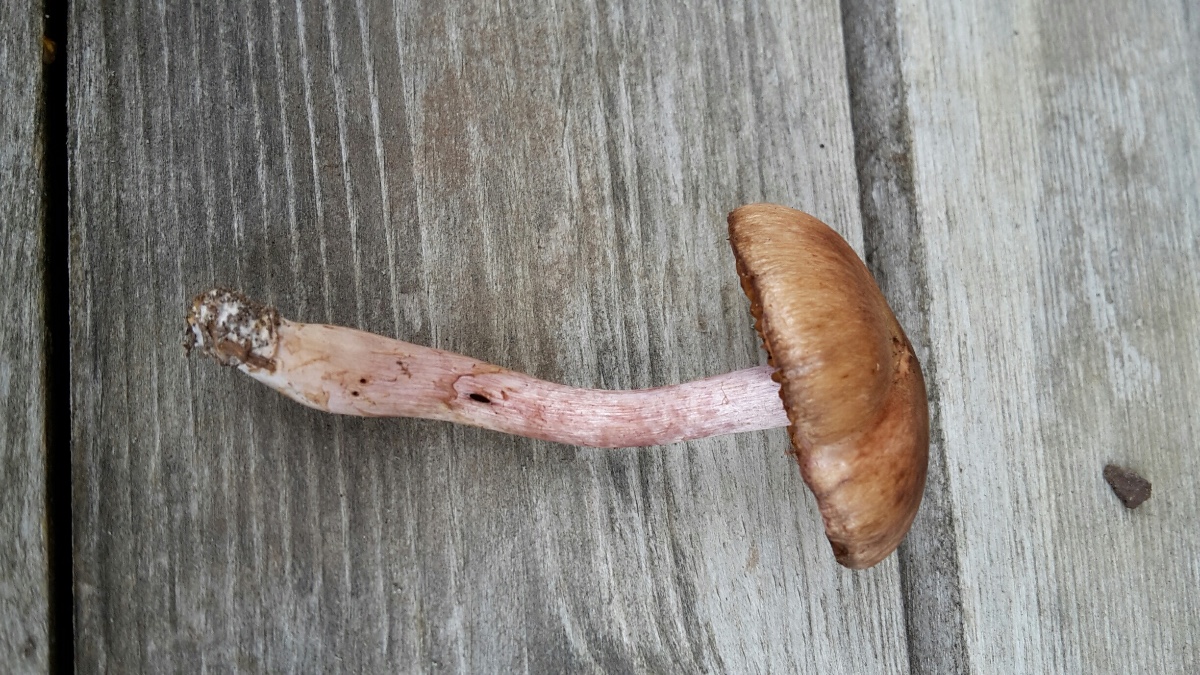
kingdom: Fungi
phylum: Basidiomycota
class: Agaricomycetes
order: Agaricales
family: Cortinariaceae
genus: Cortinarius
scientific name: Cortinarius venustus
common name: violetstokket slørhat
